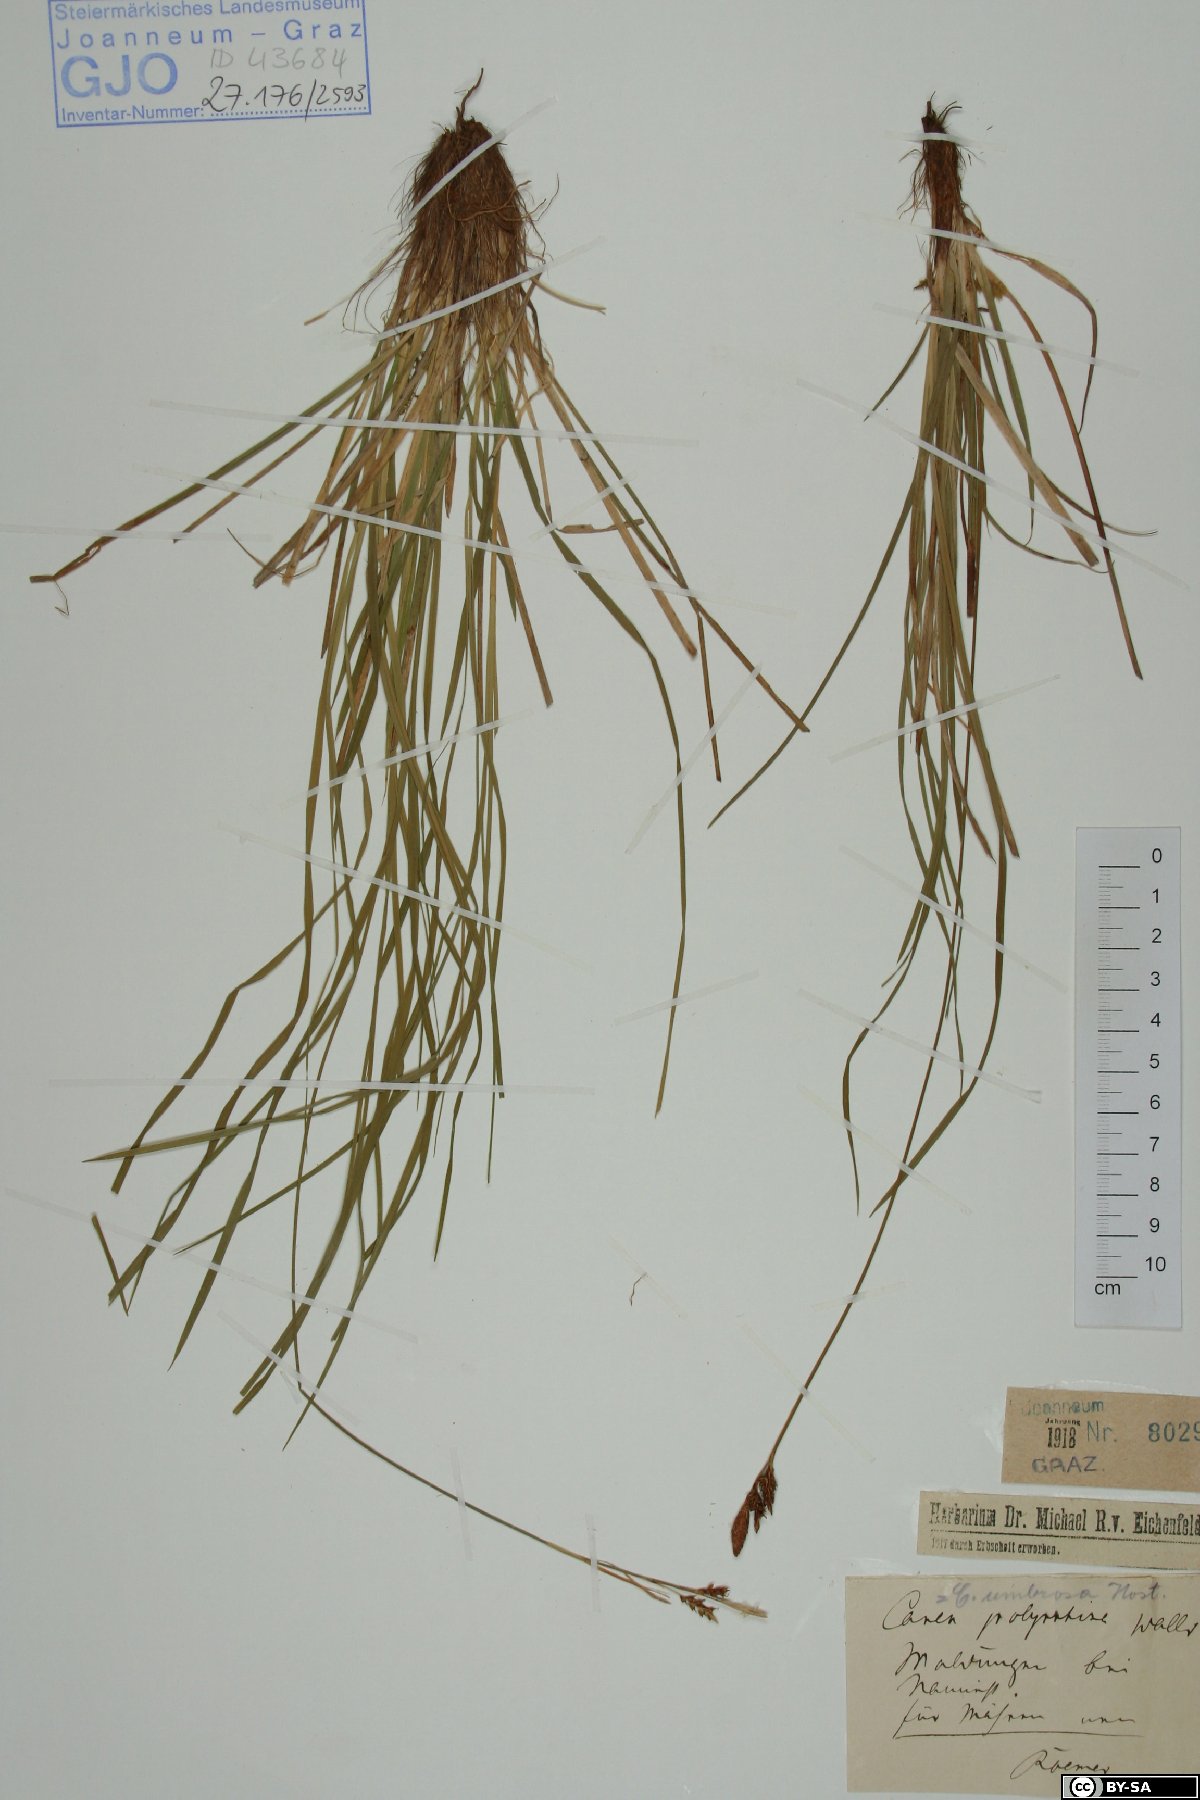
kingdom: Plantae
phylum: Tracheophyta
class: Liliopsida
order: Poales
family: Cyperaceae
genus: Carex
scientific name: Carex umbrosa
